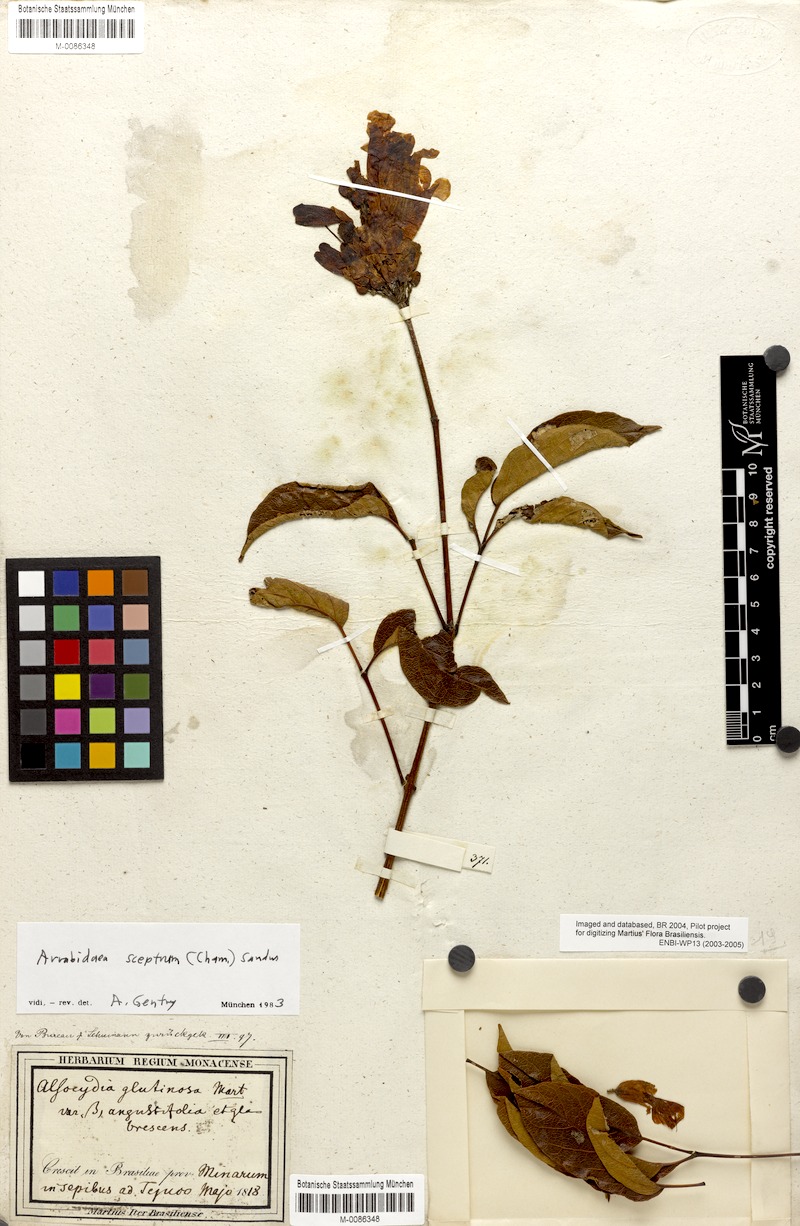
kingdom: Plantae
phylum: Tracheophyta
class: Magnoliopsida
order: Lamiales
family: Bignoniaceae
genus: Cuspidaria
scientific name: Cuspidaria sceptrum
